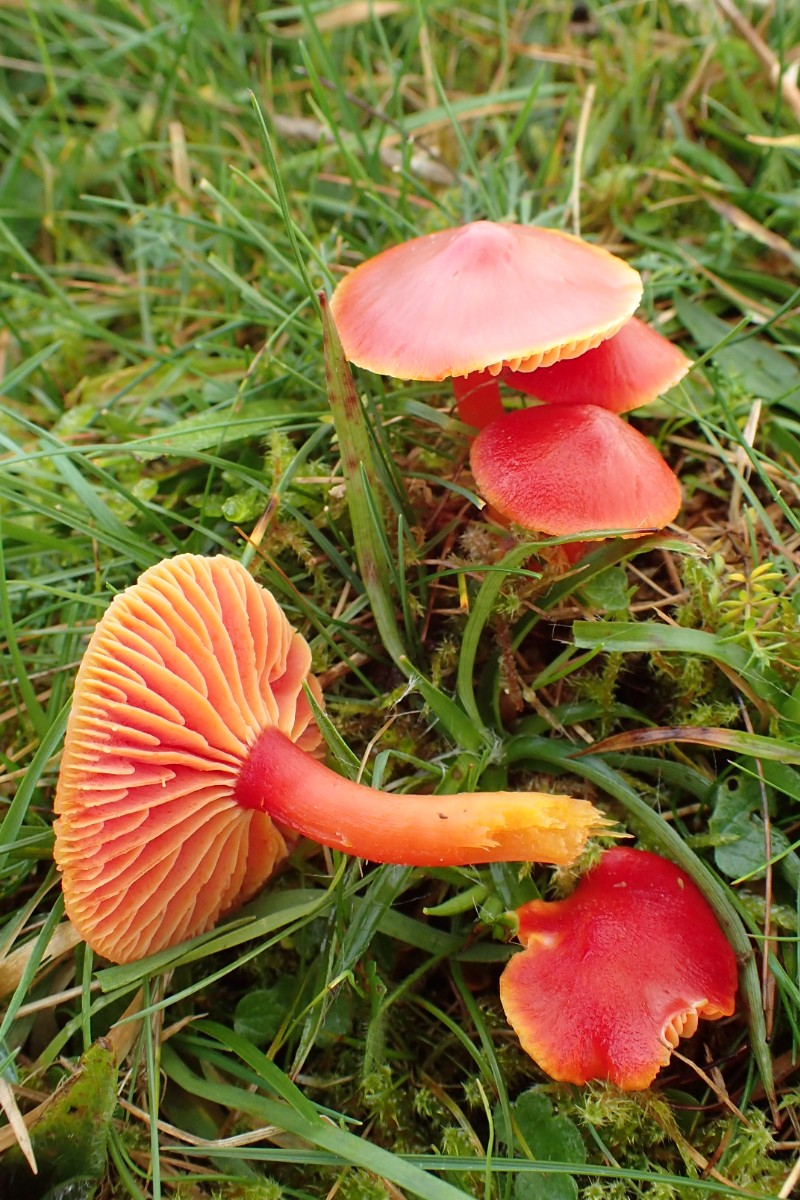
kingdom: Fungi
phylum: Basidiomycota
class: Agaricomycetes
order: Agaricales
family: Hygrophoraceae
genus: Hygrocybe
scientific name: Hygrocybe coccinea
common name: cinnober-vokshat
